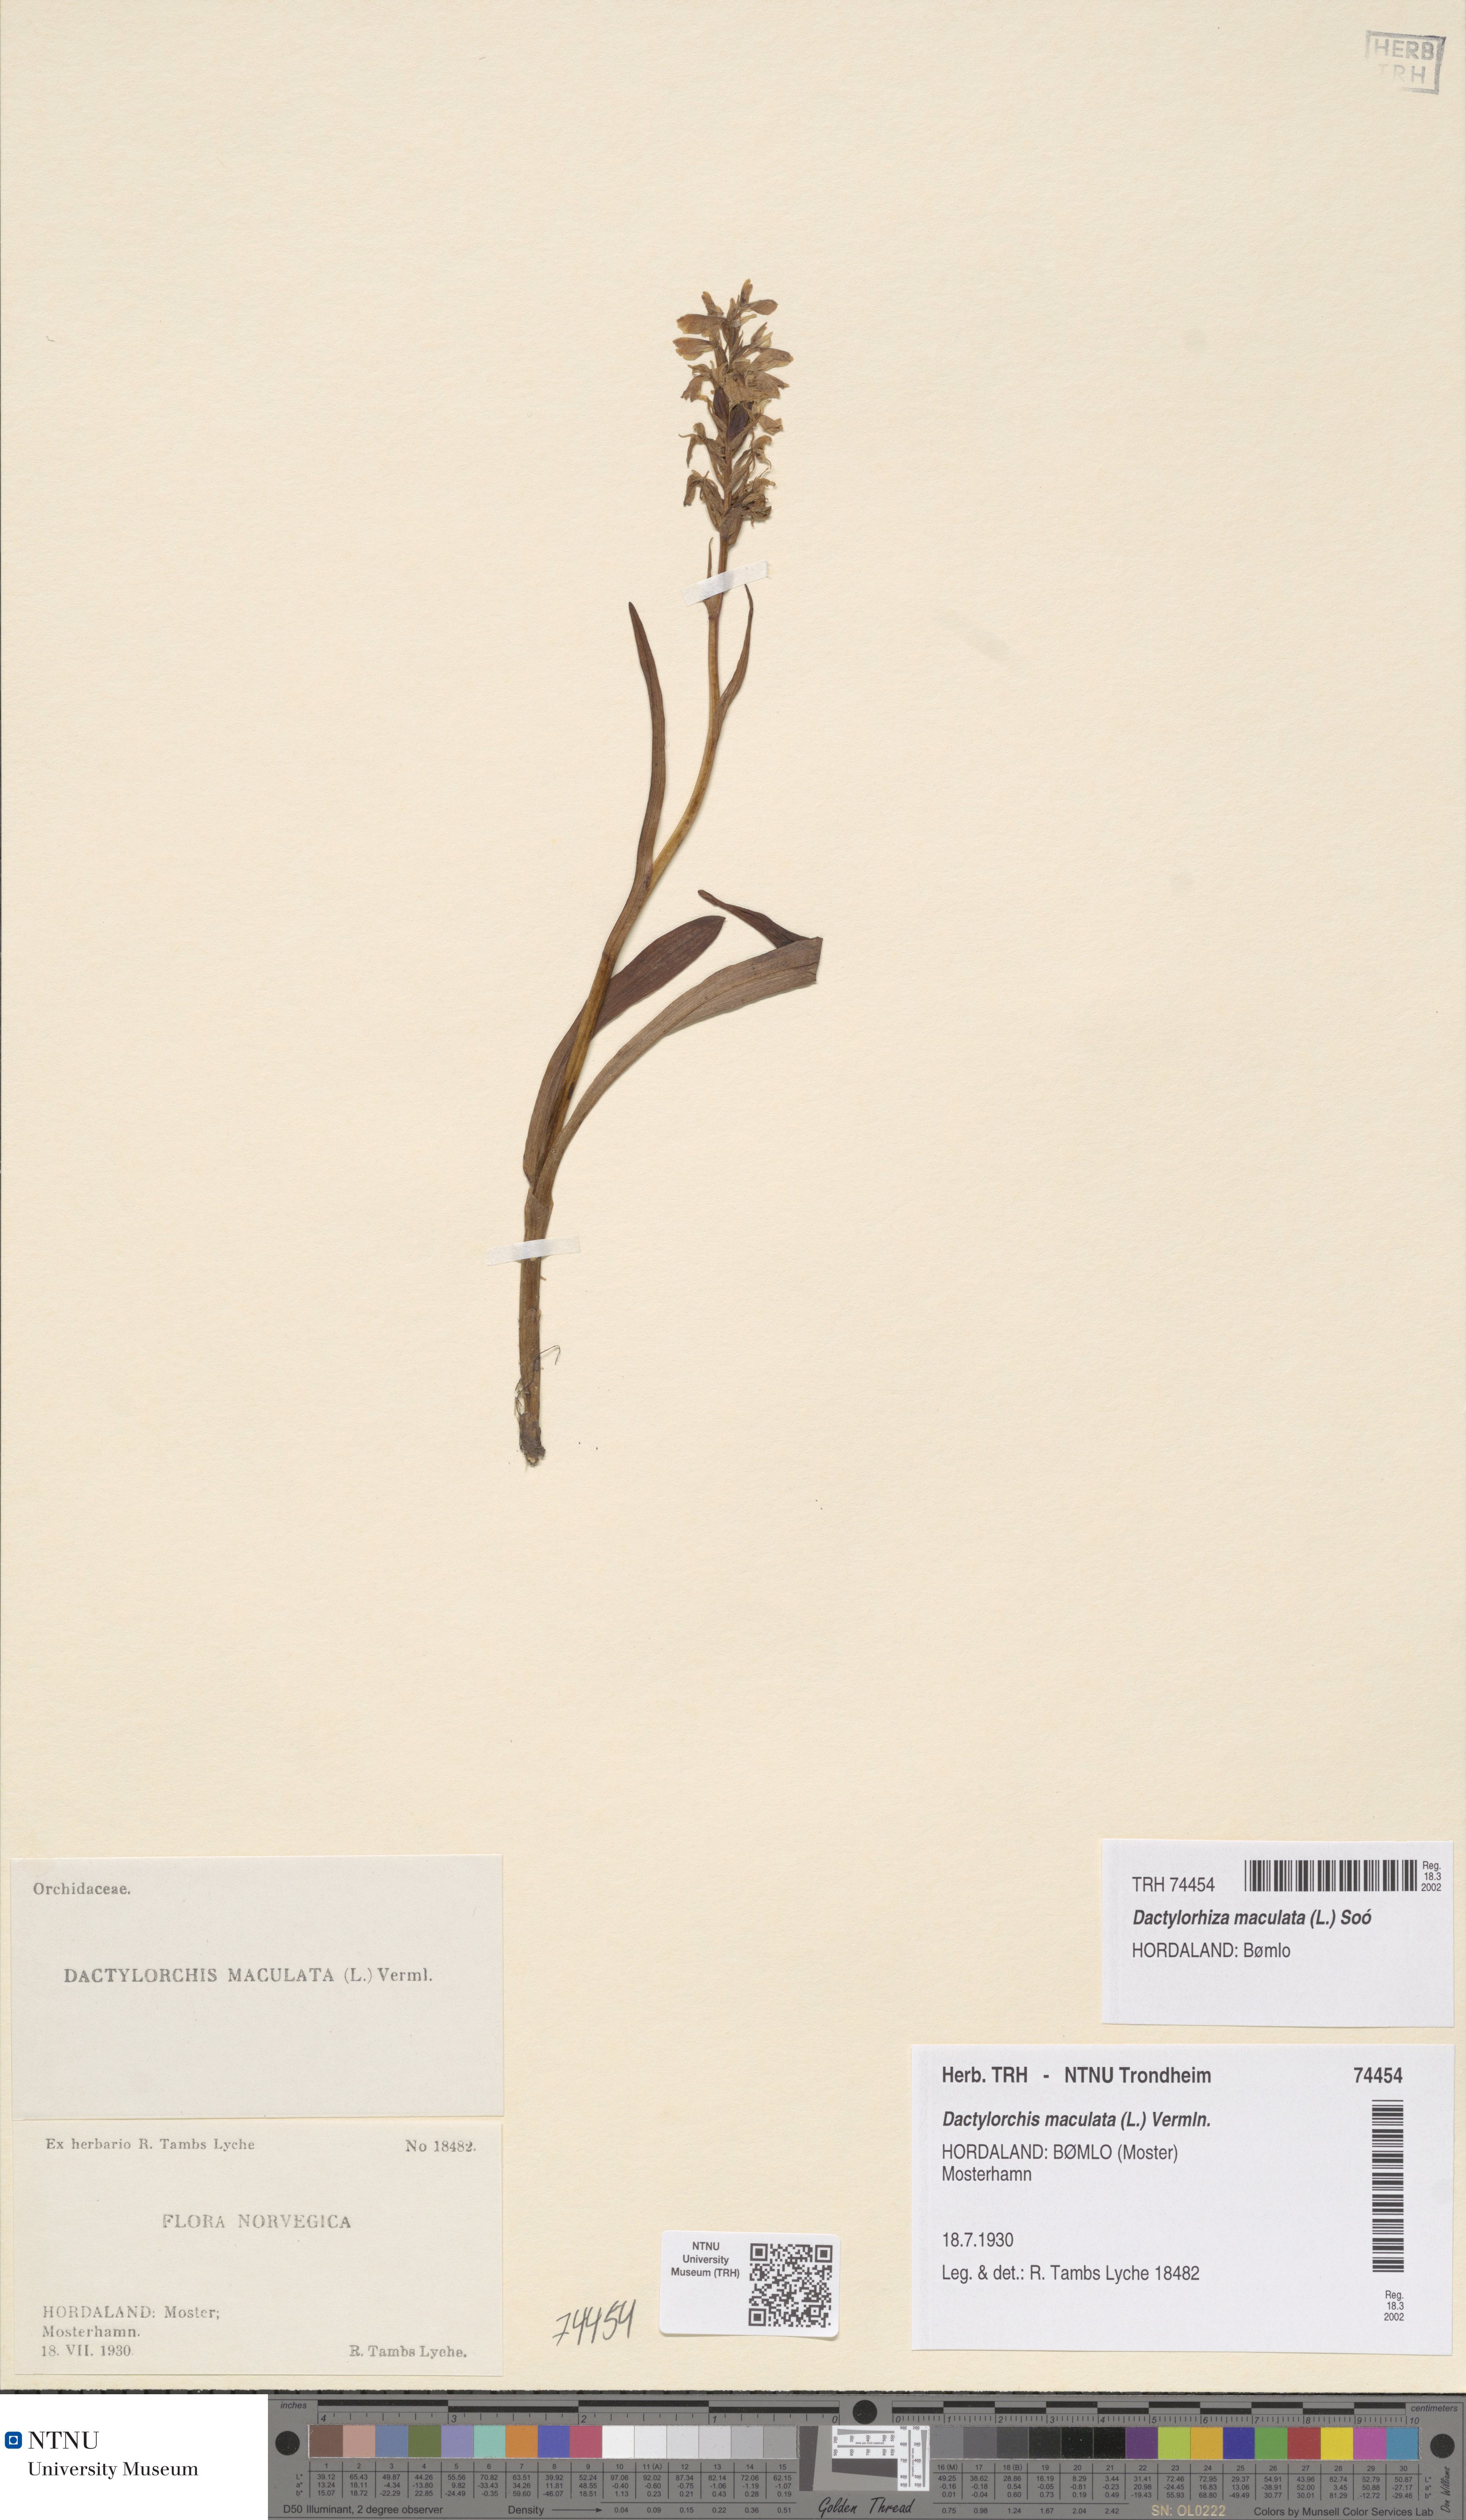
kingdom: Plantae
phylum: Tracheophyta
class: Liliopsida
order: Asparagales
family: Orchidaceae
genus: Dactylorhiza
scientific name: Dactylorhiza maculata
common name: Heath spotted-orchid
